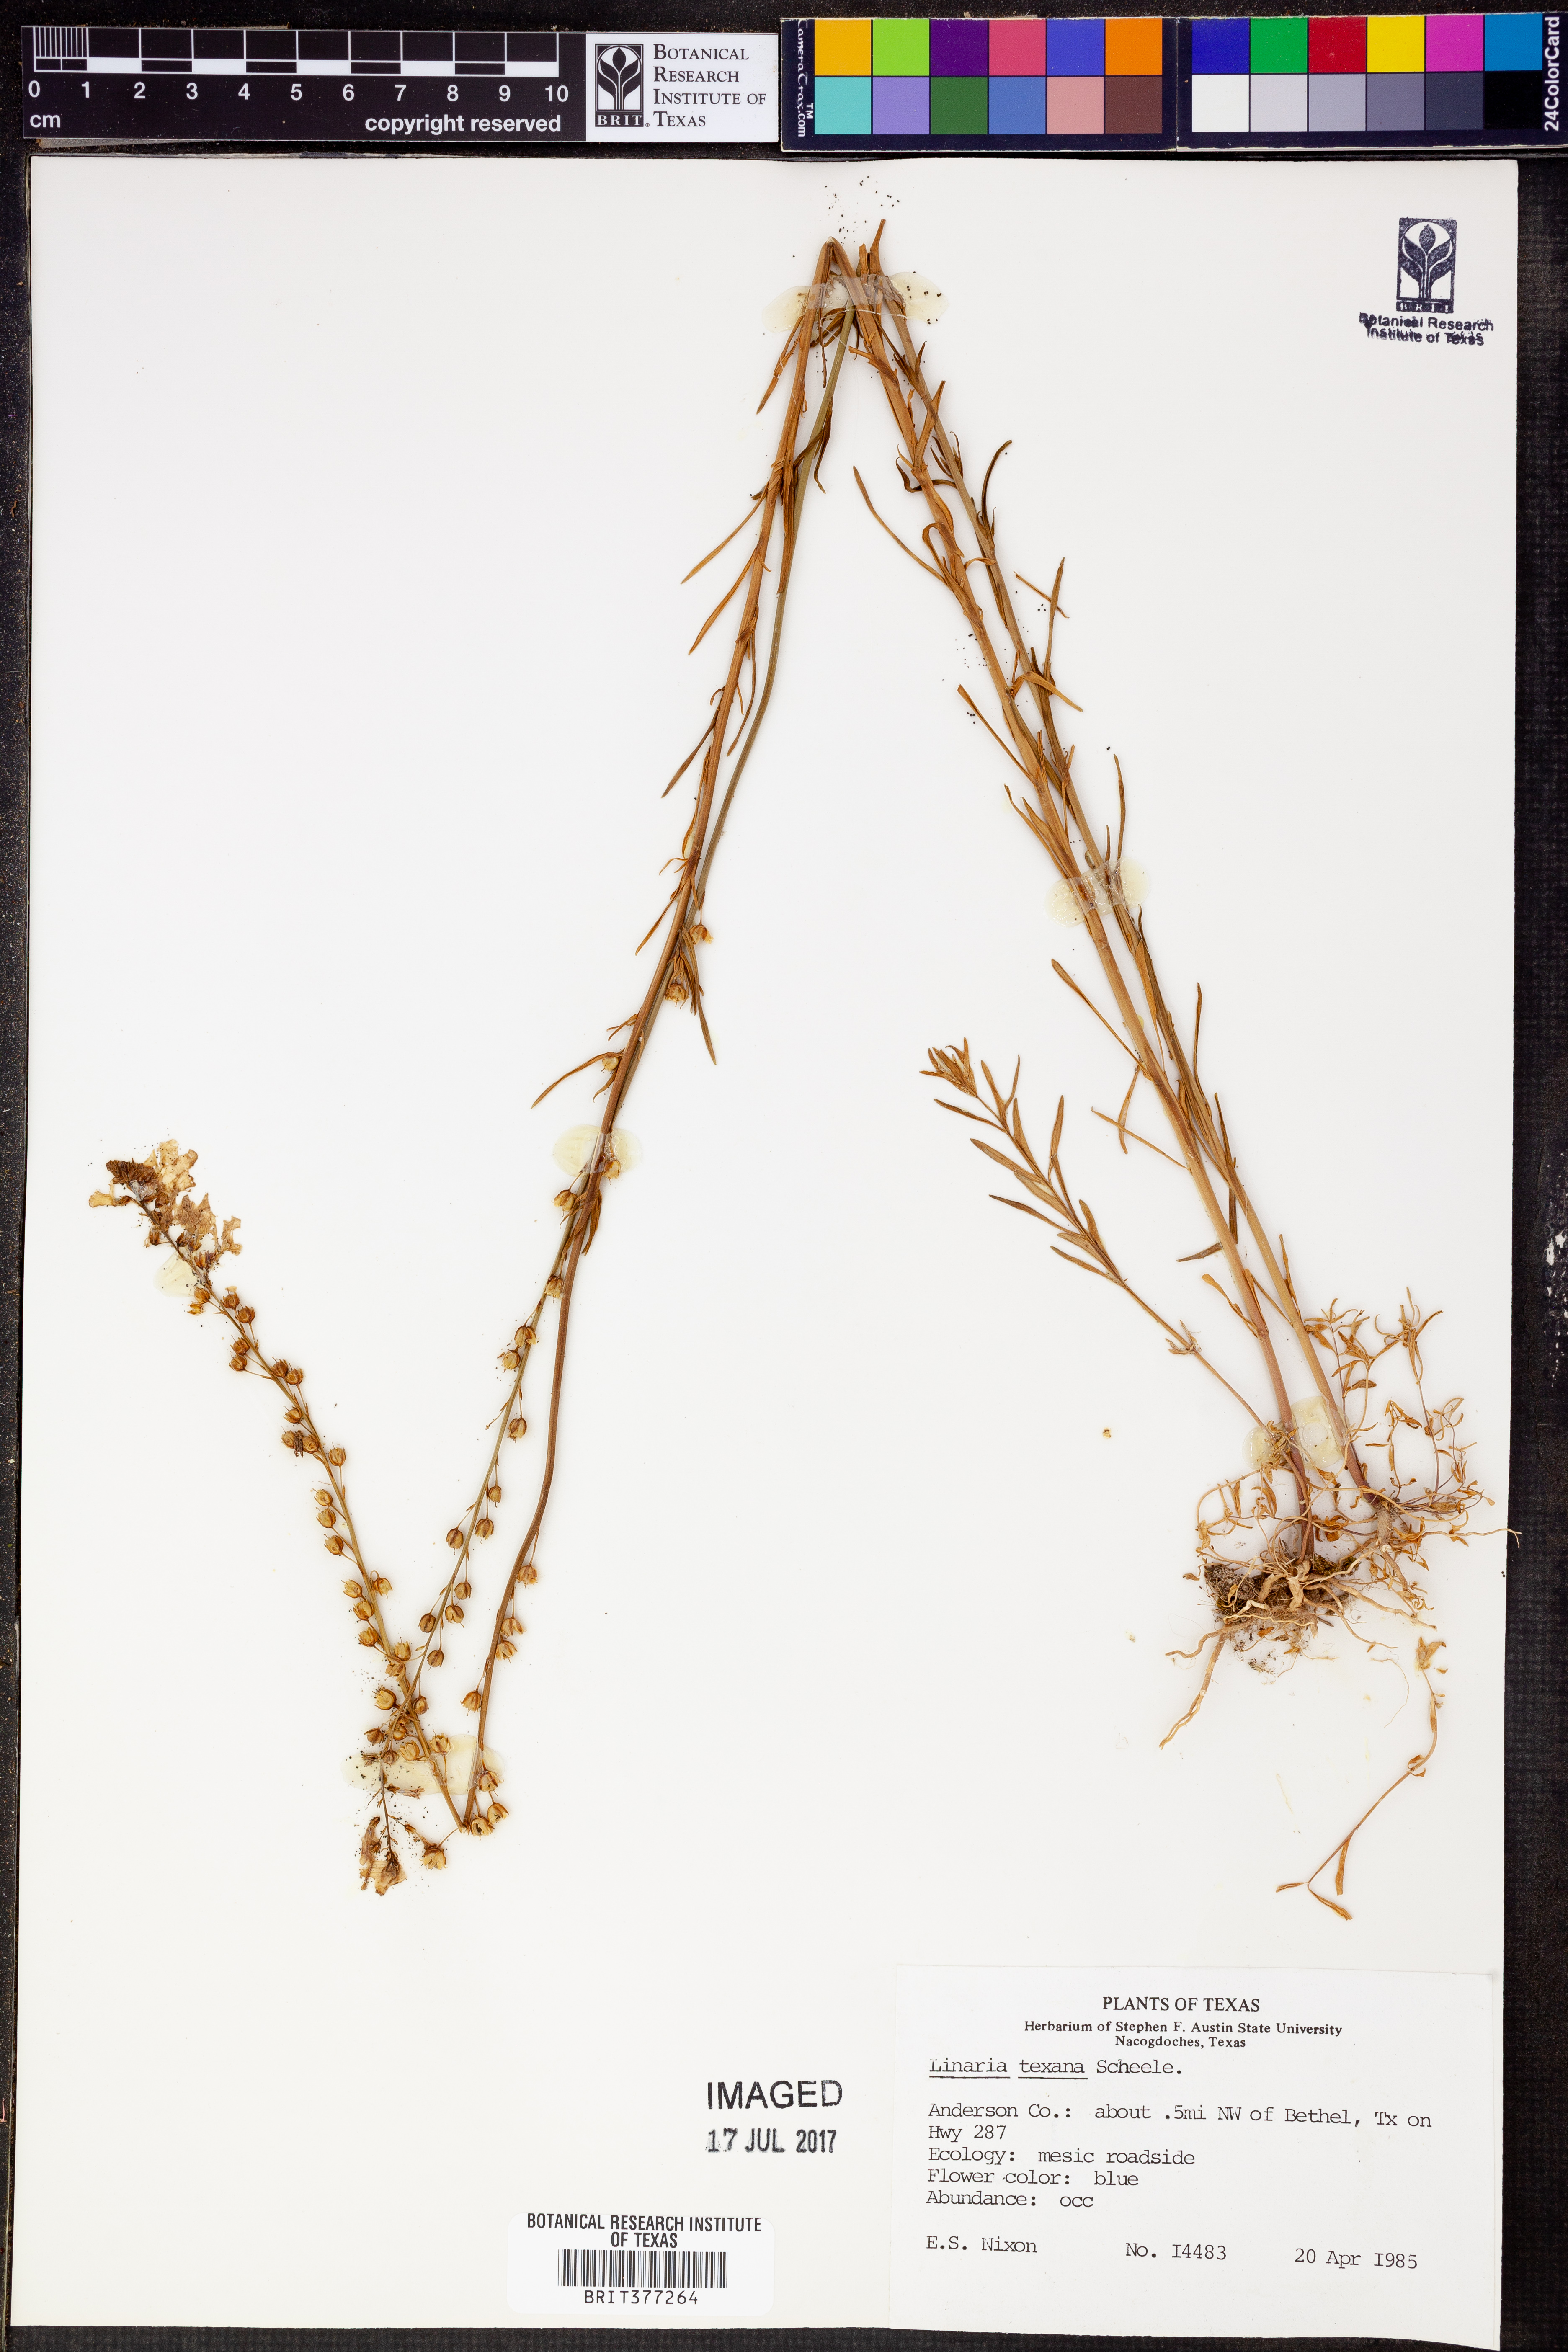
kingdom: Plantae
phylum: Tracheophyta
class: Magnoliopsida
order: Lamiales
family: Plantaginaceae
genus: Nuttallanthus
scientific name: Nuttallanthus texanus
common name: Texas toadflax
